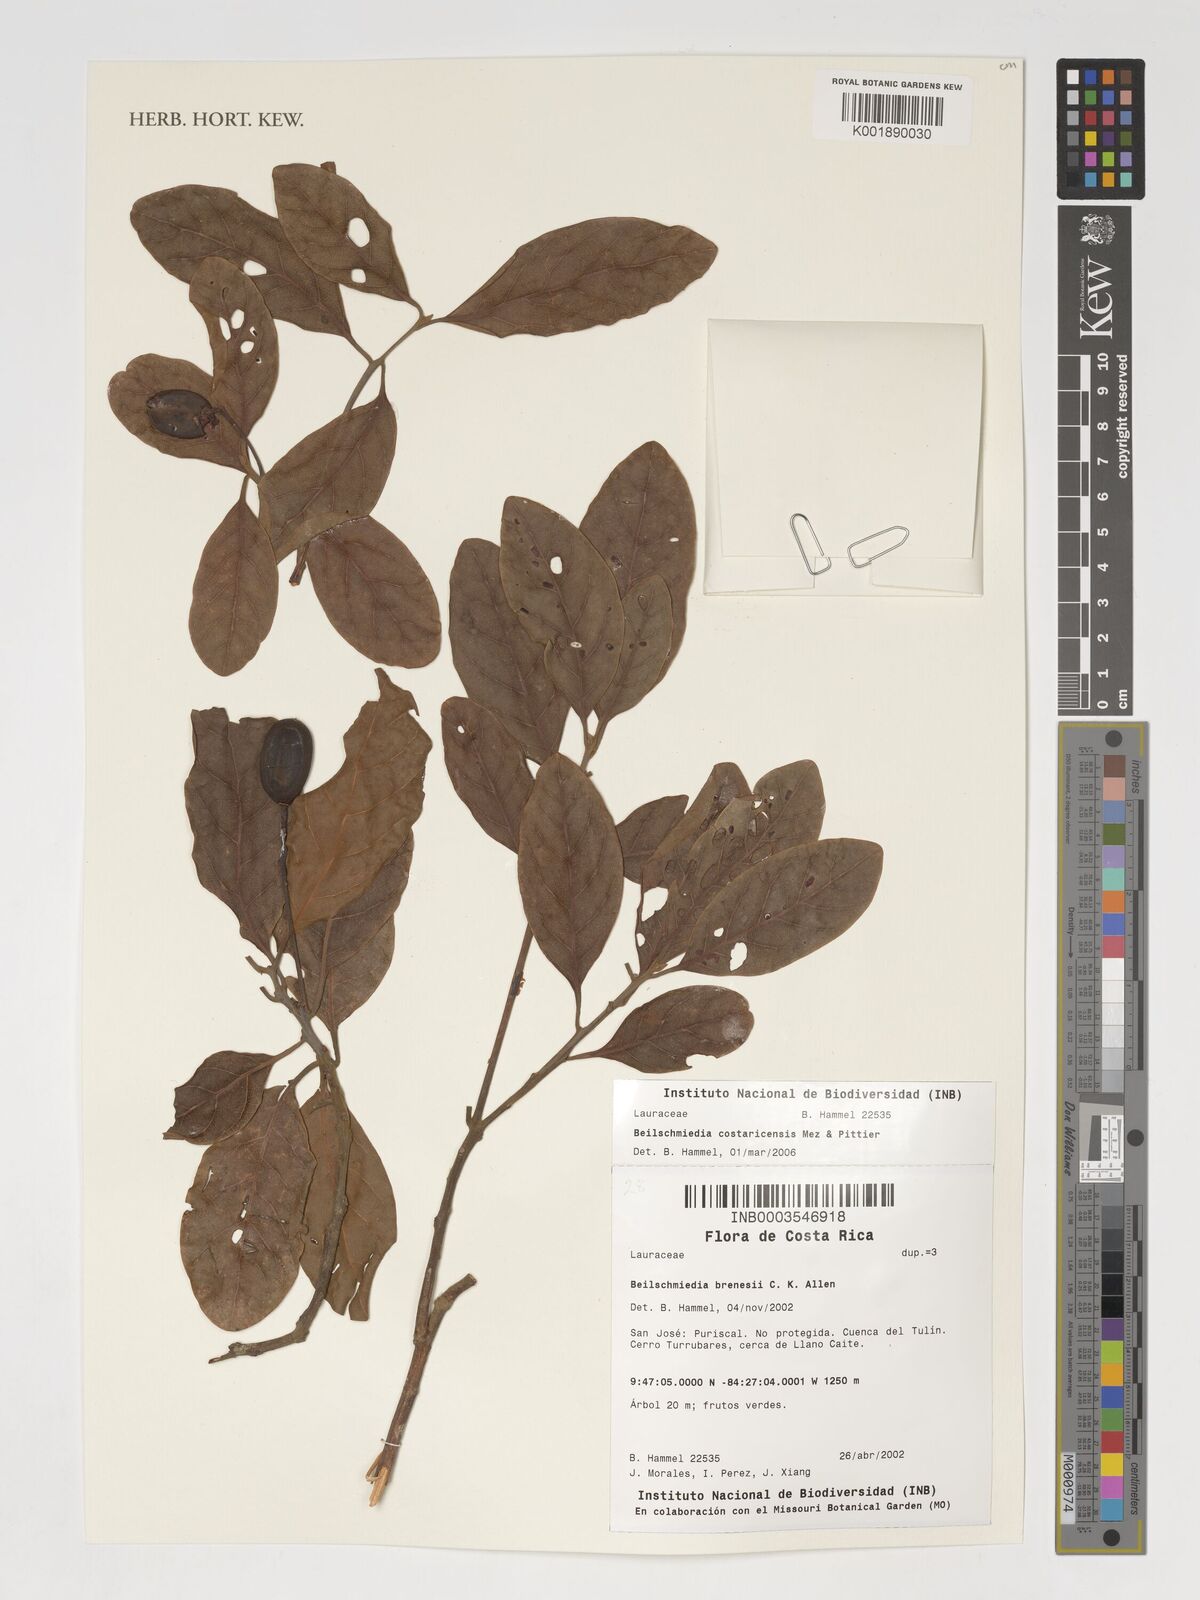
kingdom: Plantae
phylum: Tracheophyta
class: Magnoliopsida
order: Laurales
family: Lauraceae
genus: Beilschmiedia
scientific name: Beilschmiedia costaricensis
